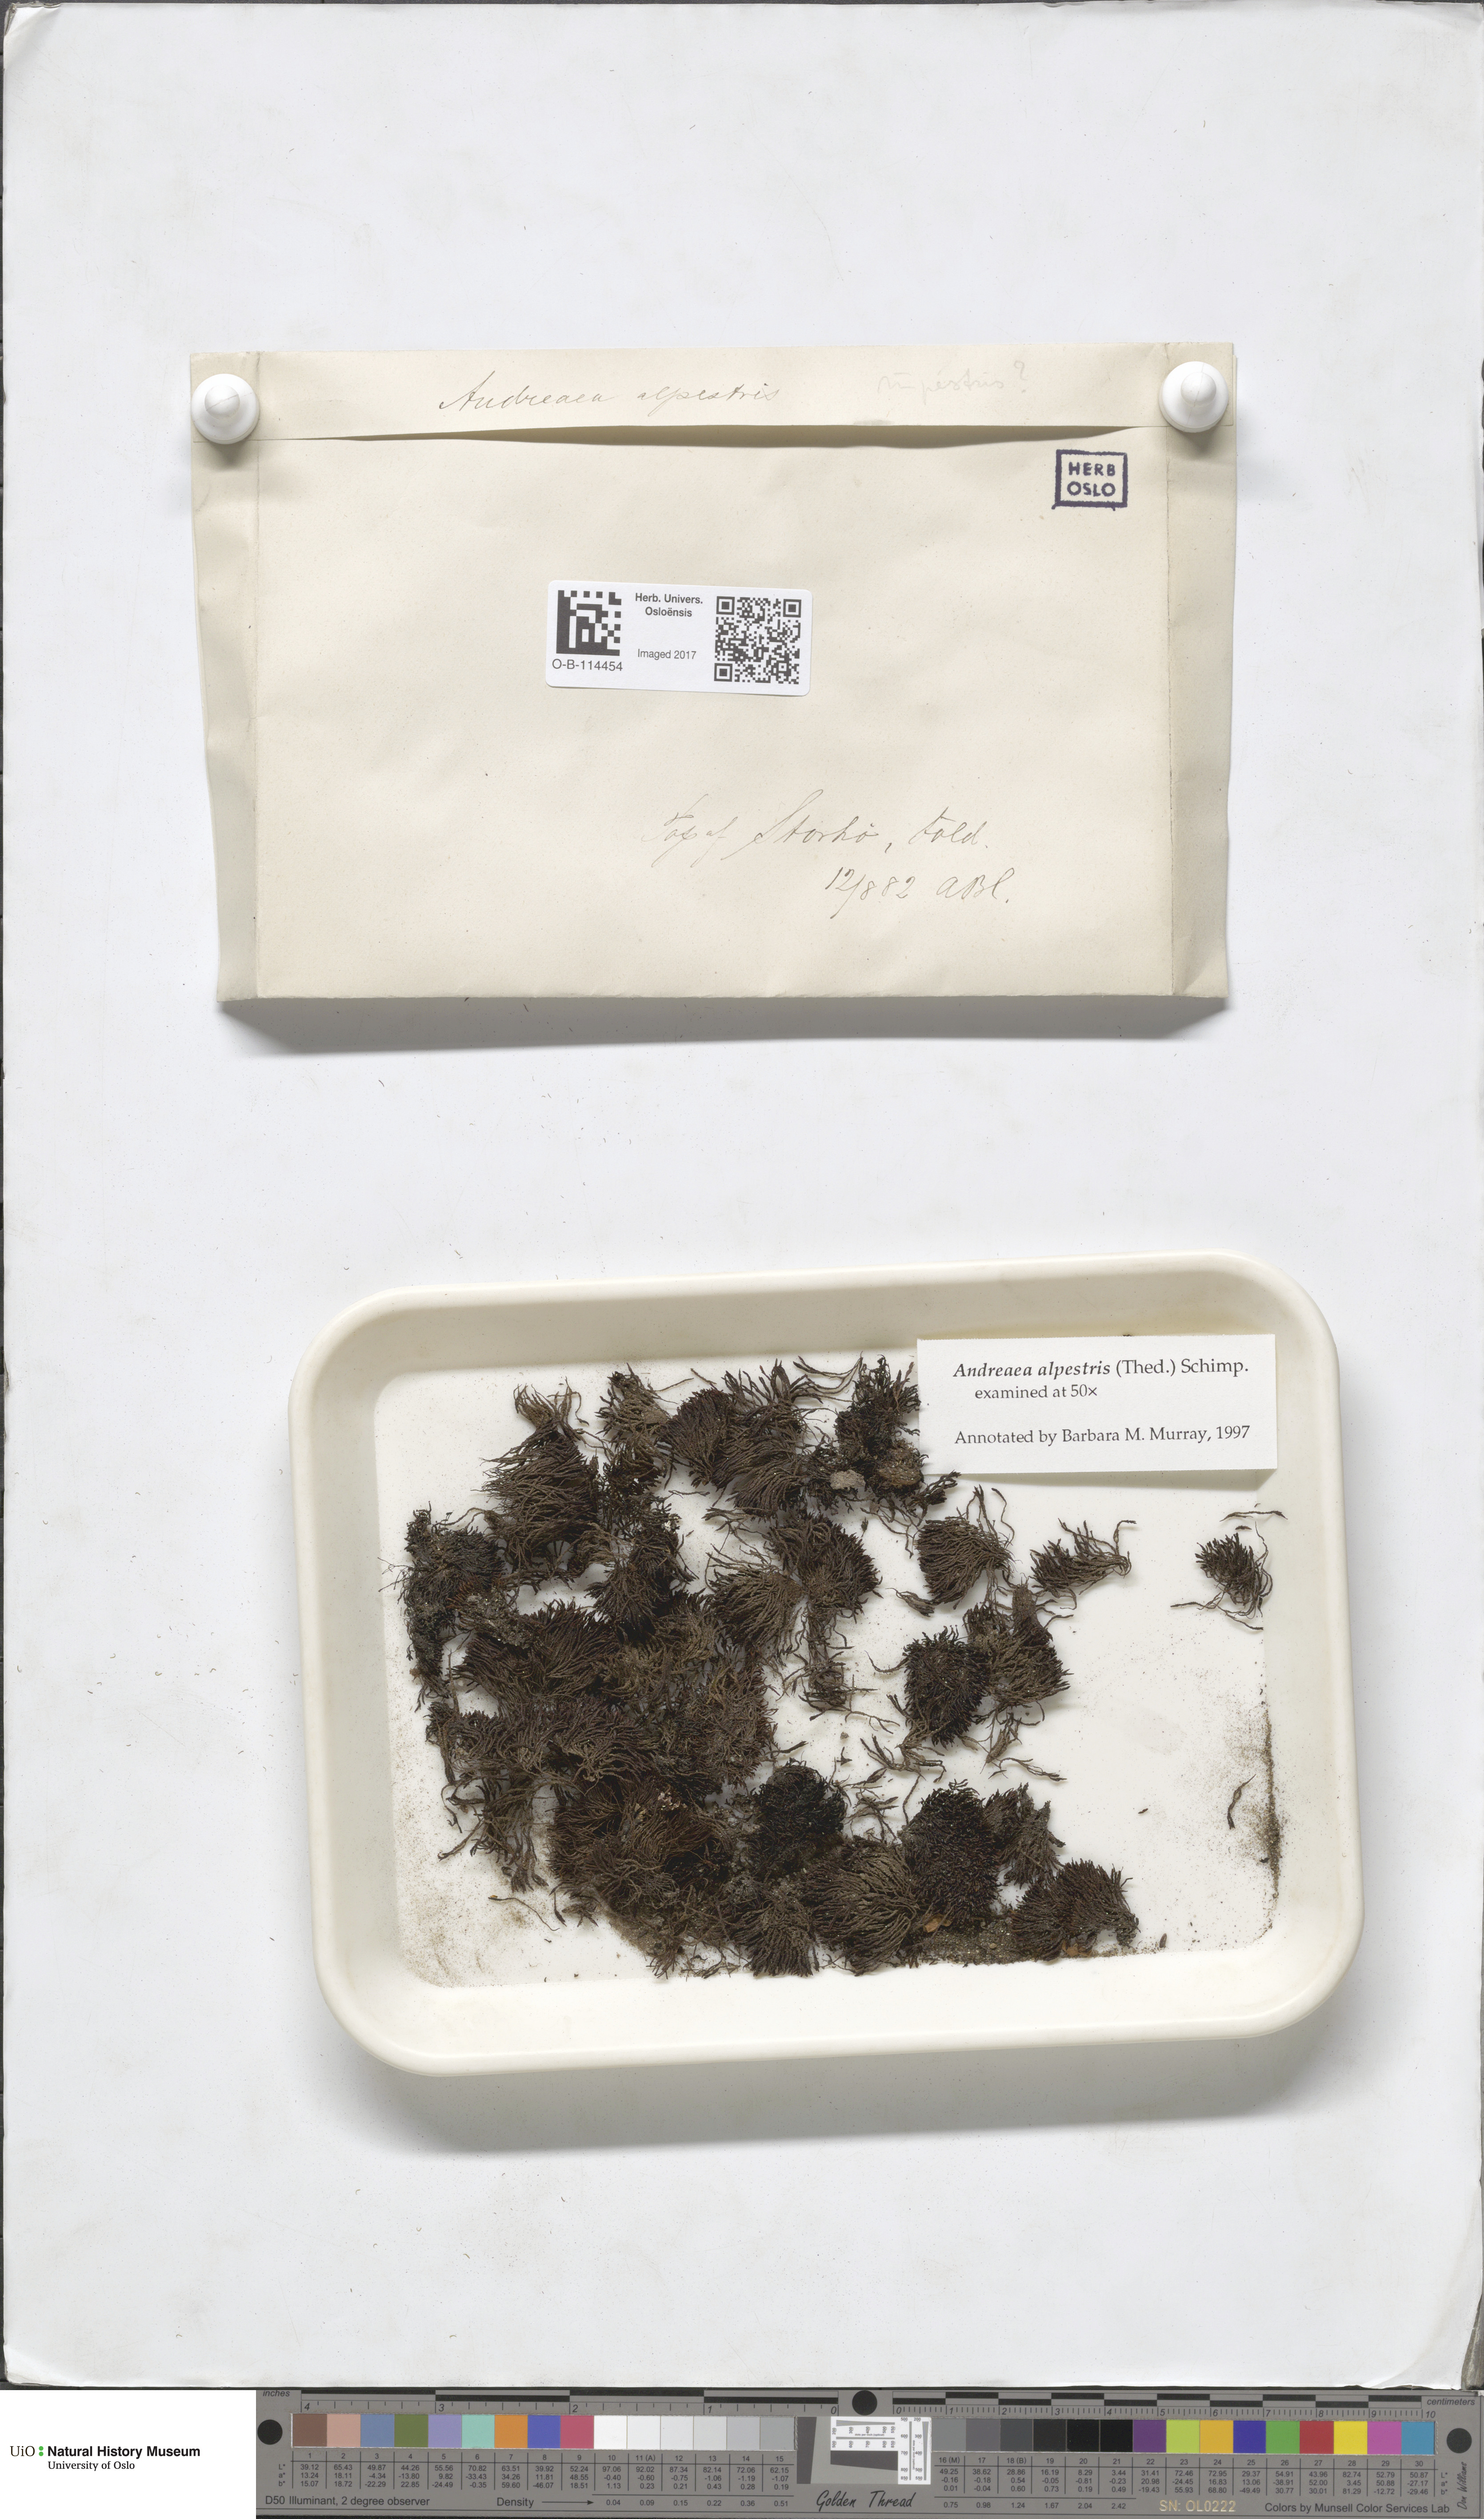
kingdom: Plantae
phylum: Bryophyta
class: Andreaeopsida
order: Andreaeales
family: Andreaeaceae
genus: Andreaea
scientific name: Andreaea alpestris
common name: Slender rock-moss
